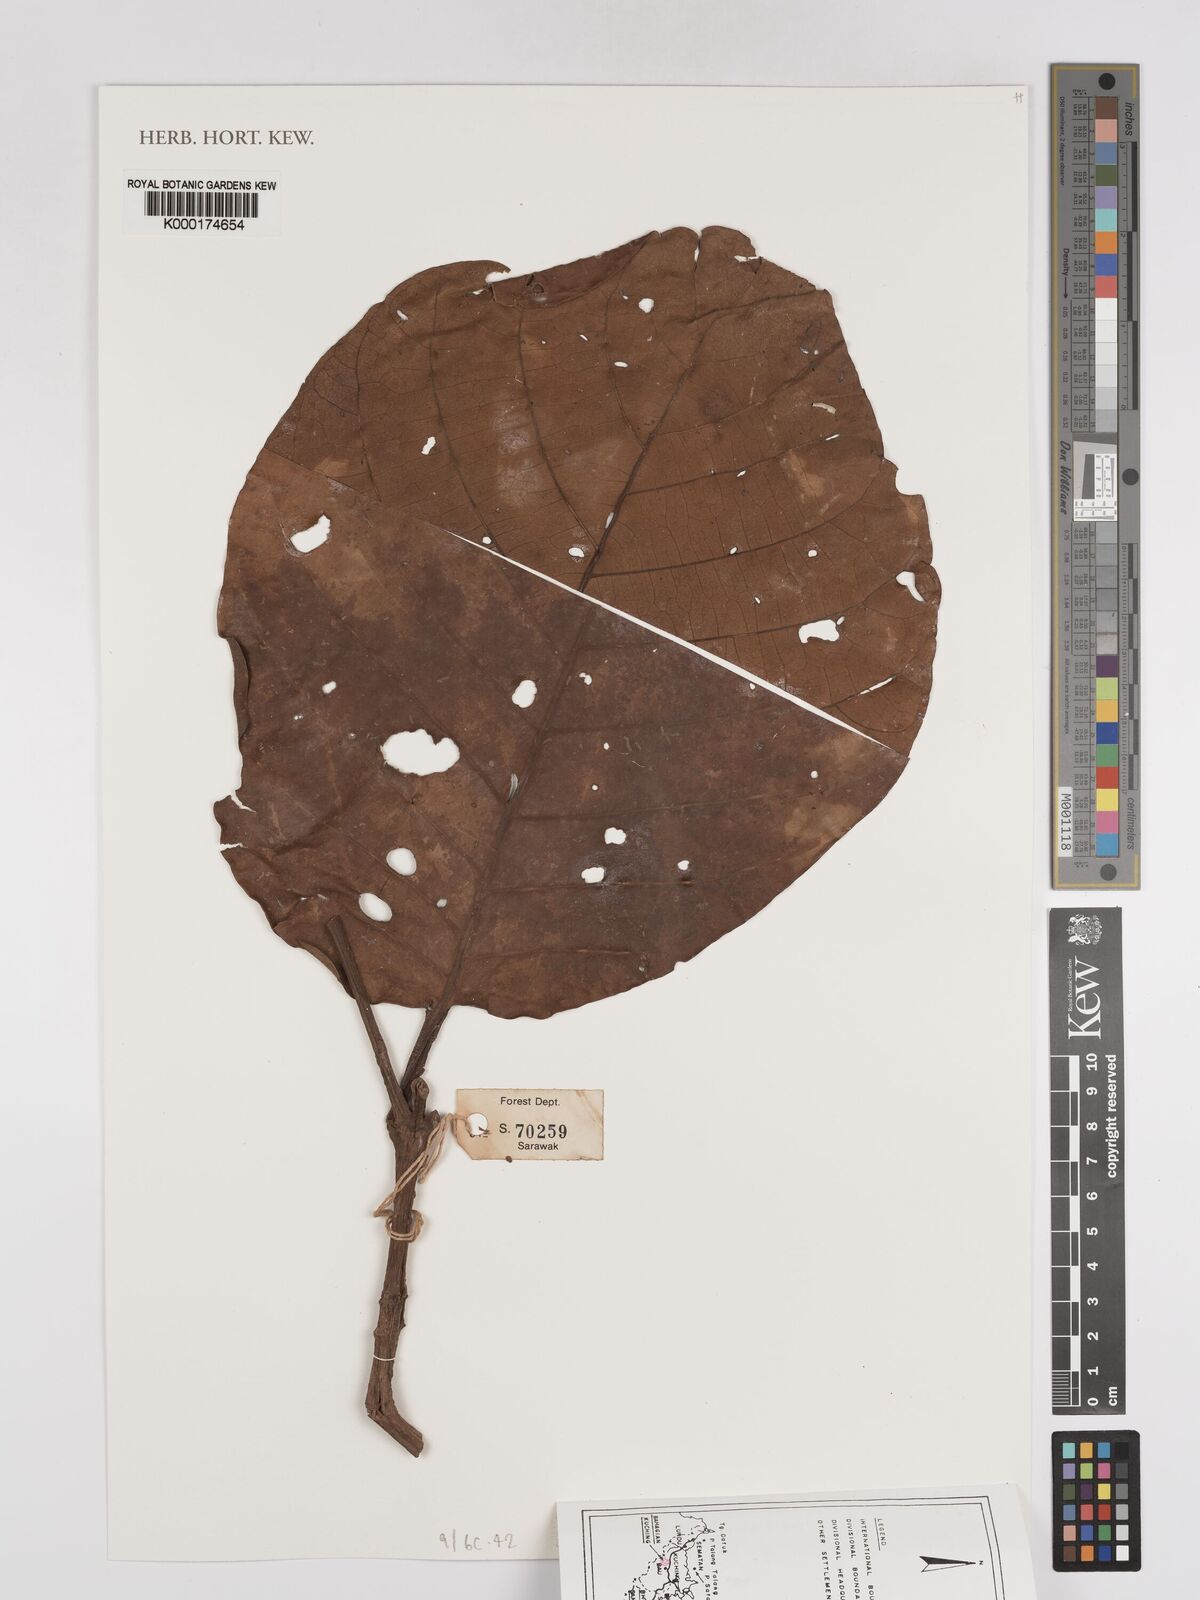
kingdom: Plantae
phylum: Tracheophyta
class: Magnoliopsida
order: Gentianales
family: Rubiaceae
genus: Neonauclea
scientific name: Neonauclea
